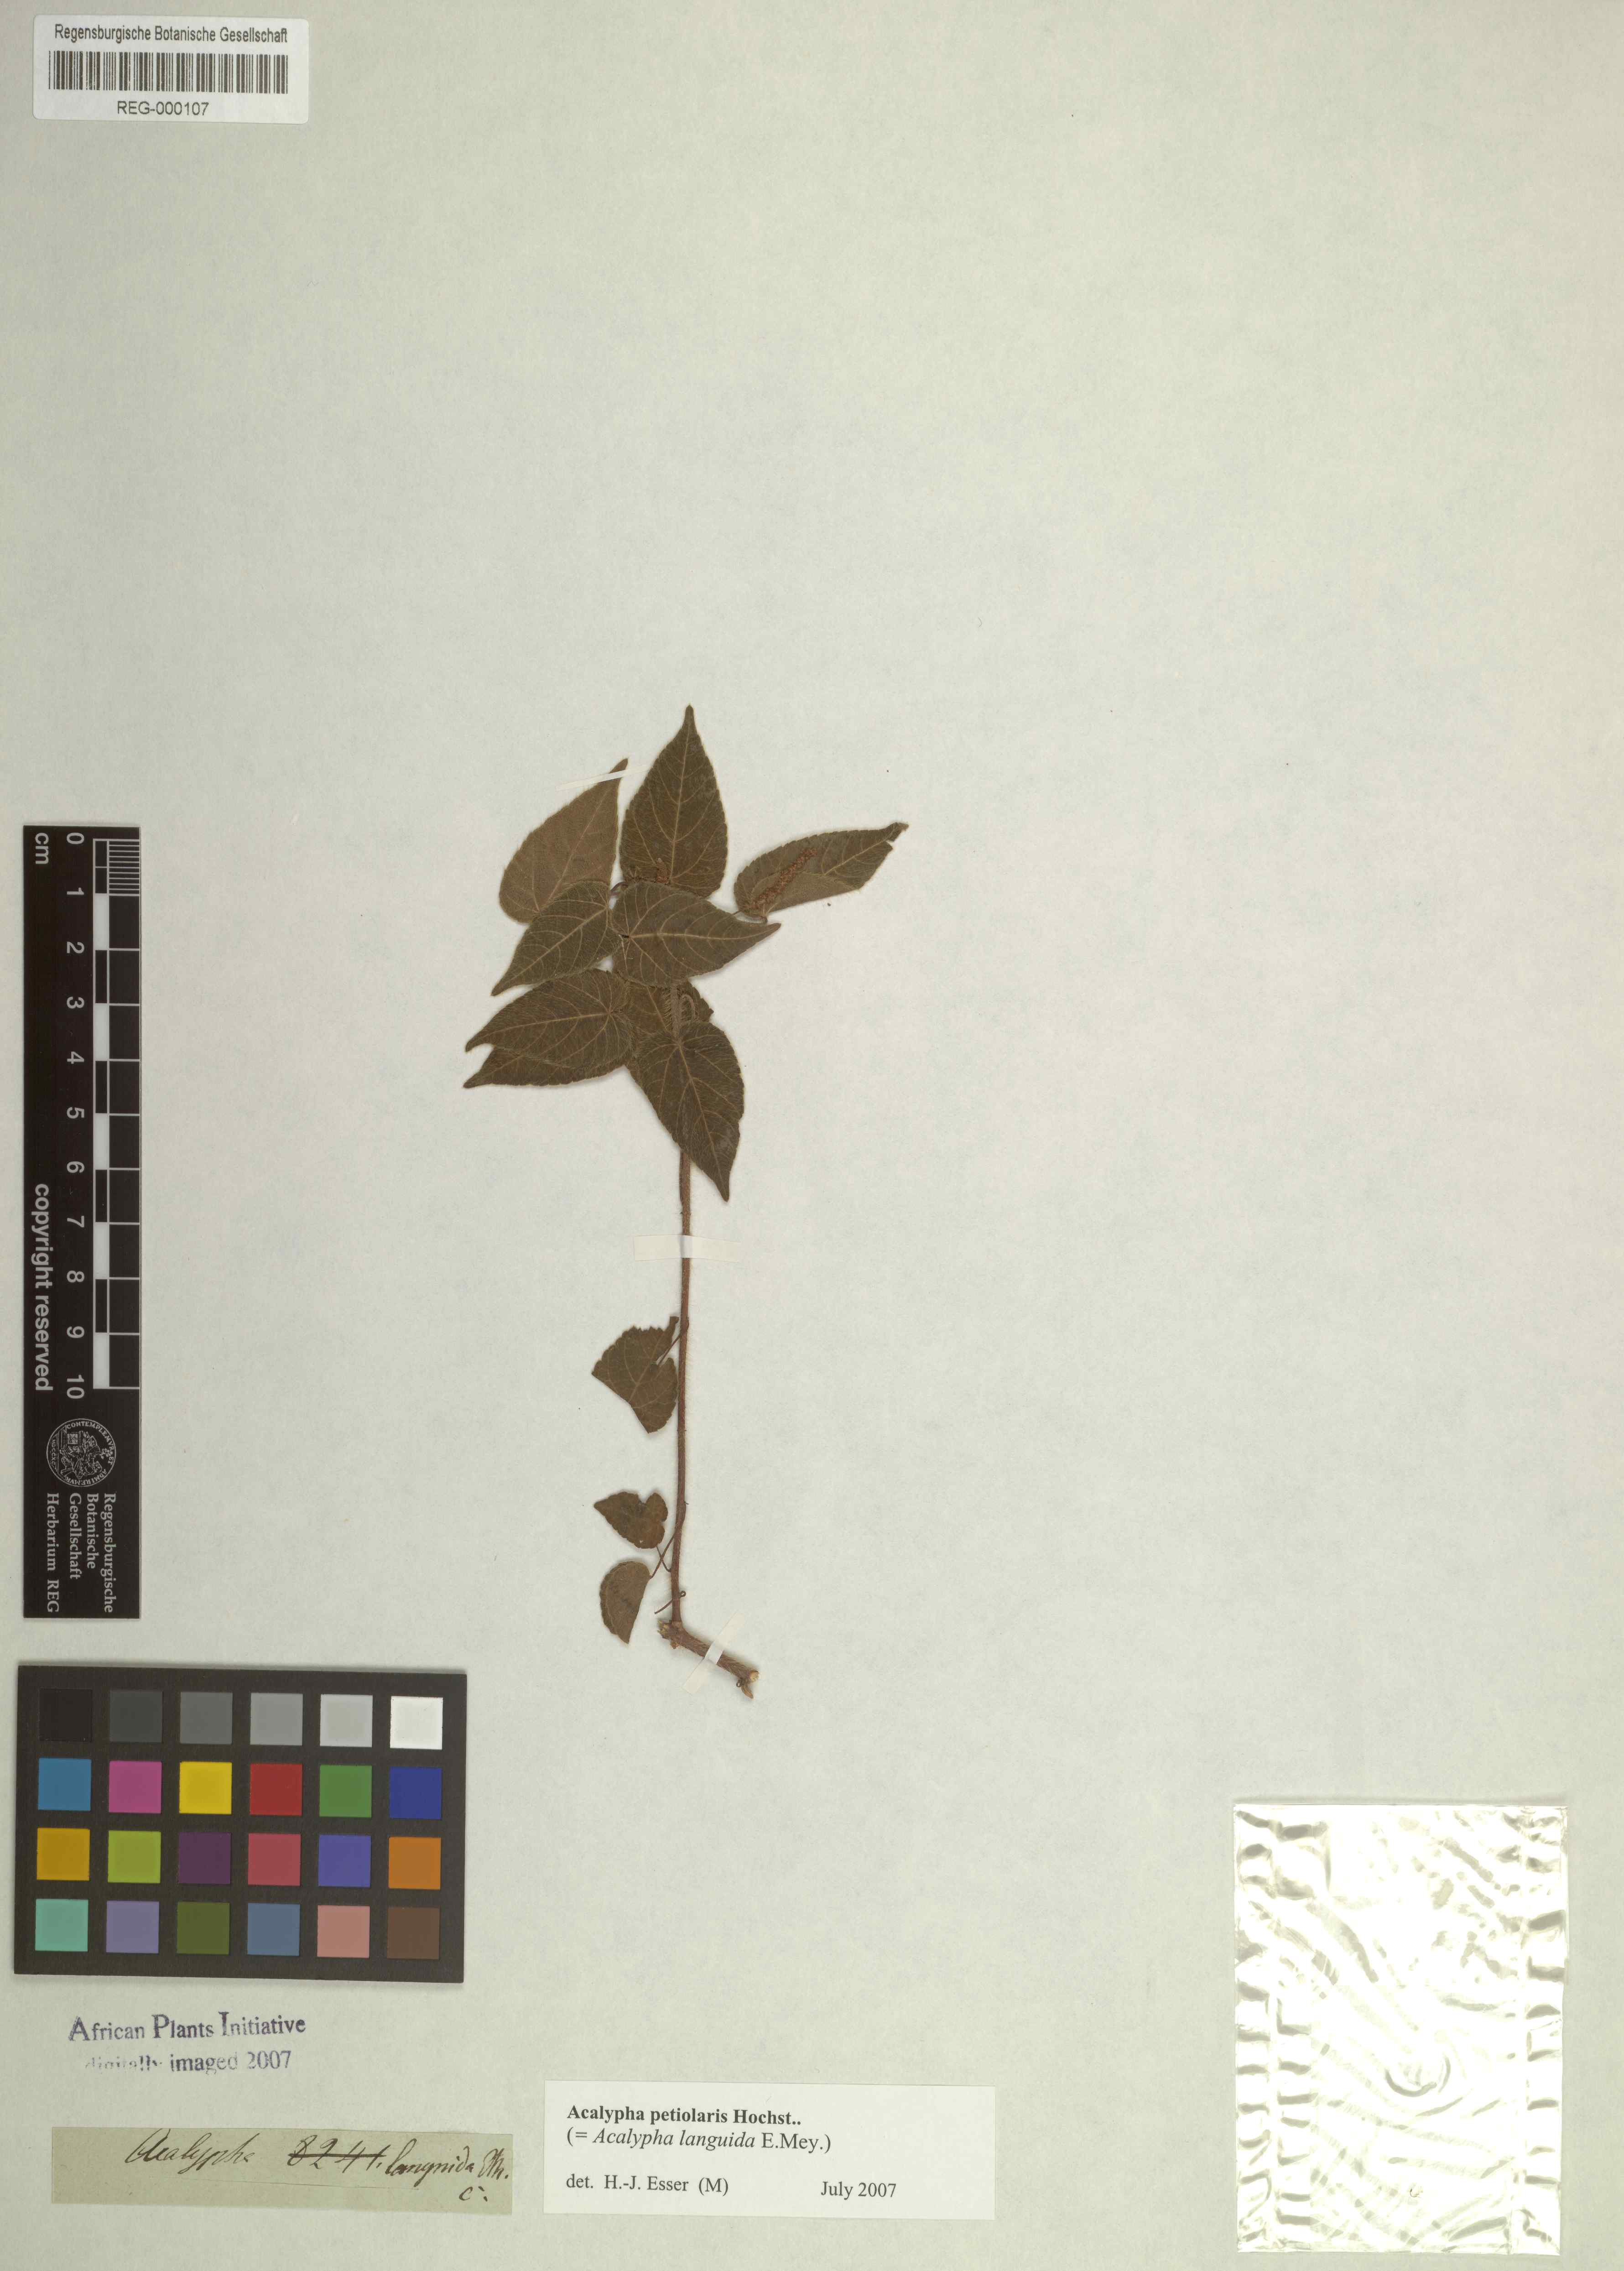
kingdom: Plantae
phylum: Tracheophyta
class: Magnoliopsida
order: Malpighiales
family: Euphorbiaceae
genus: Acalypha
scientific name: Acalypha petiolaris
